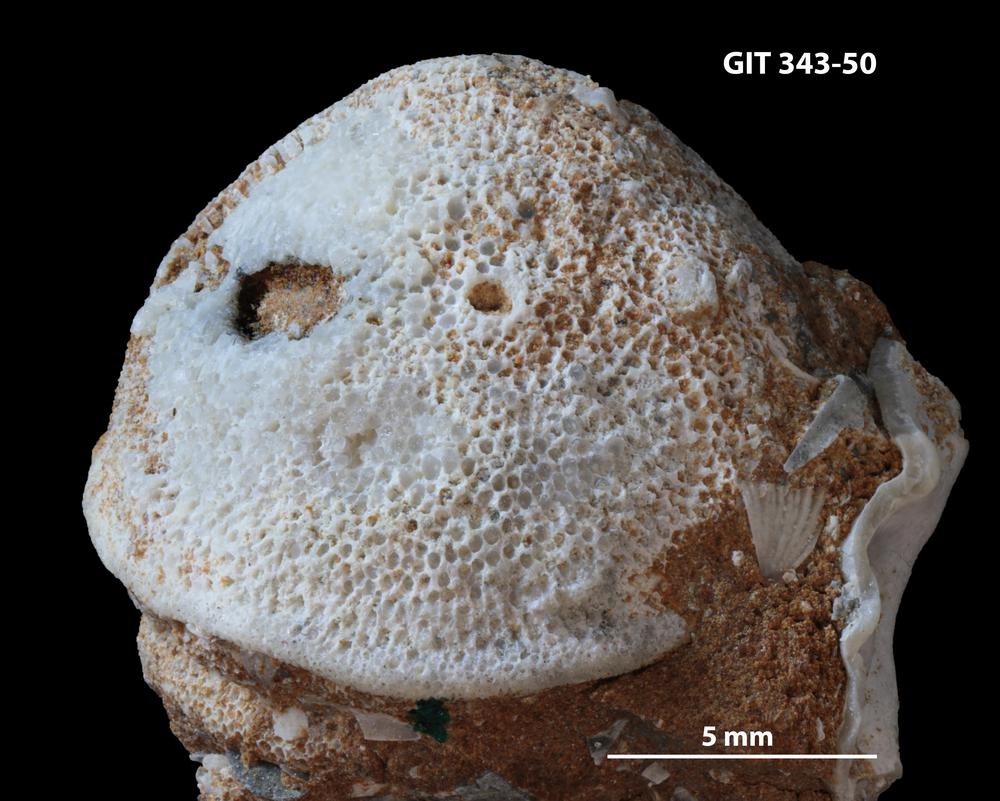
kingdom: Animalia
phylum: Bryozoa
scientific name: Bryozoa
